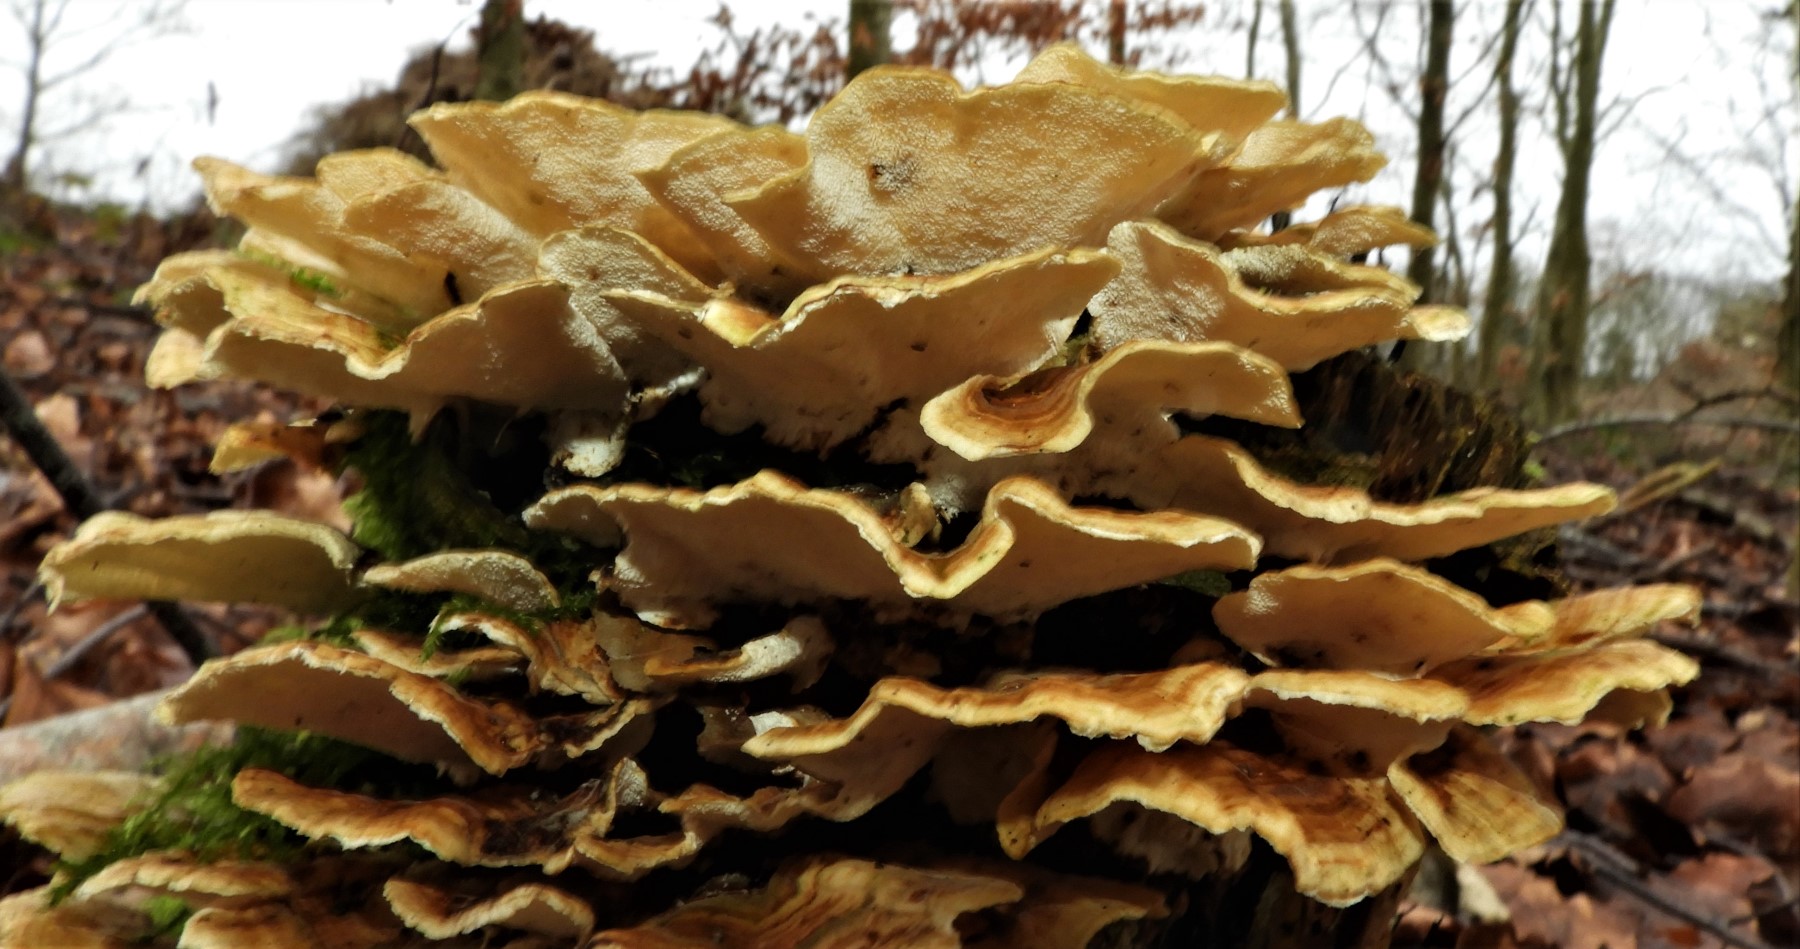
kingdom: Fungi
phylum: Basidiomycota
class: Agaricomycetes
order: Polyporales
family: Polyporaceae
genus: Trametes
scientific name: Trametes versicolor
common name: broget læderporesvamp
